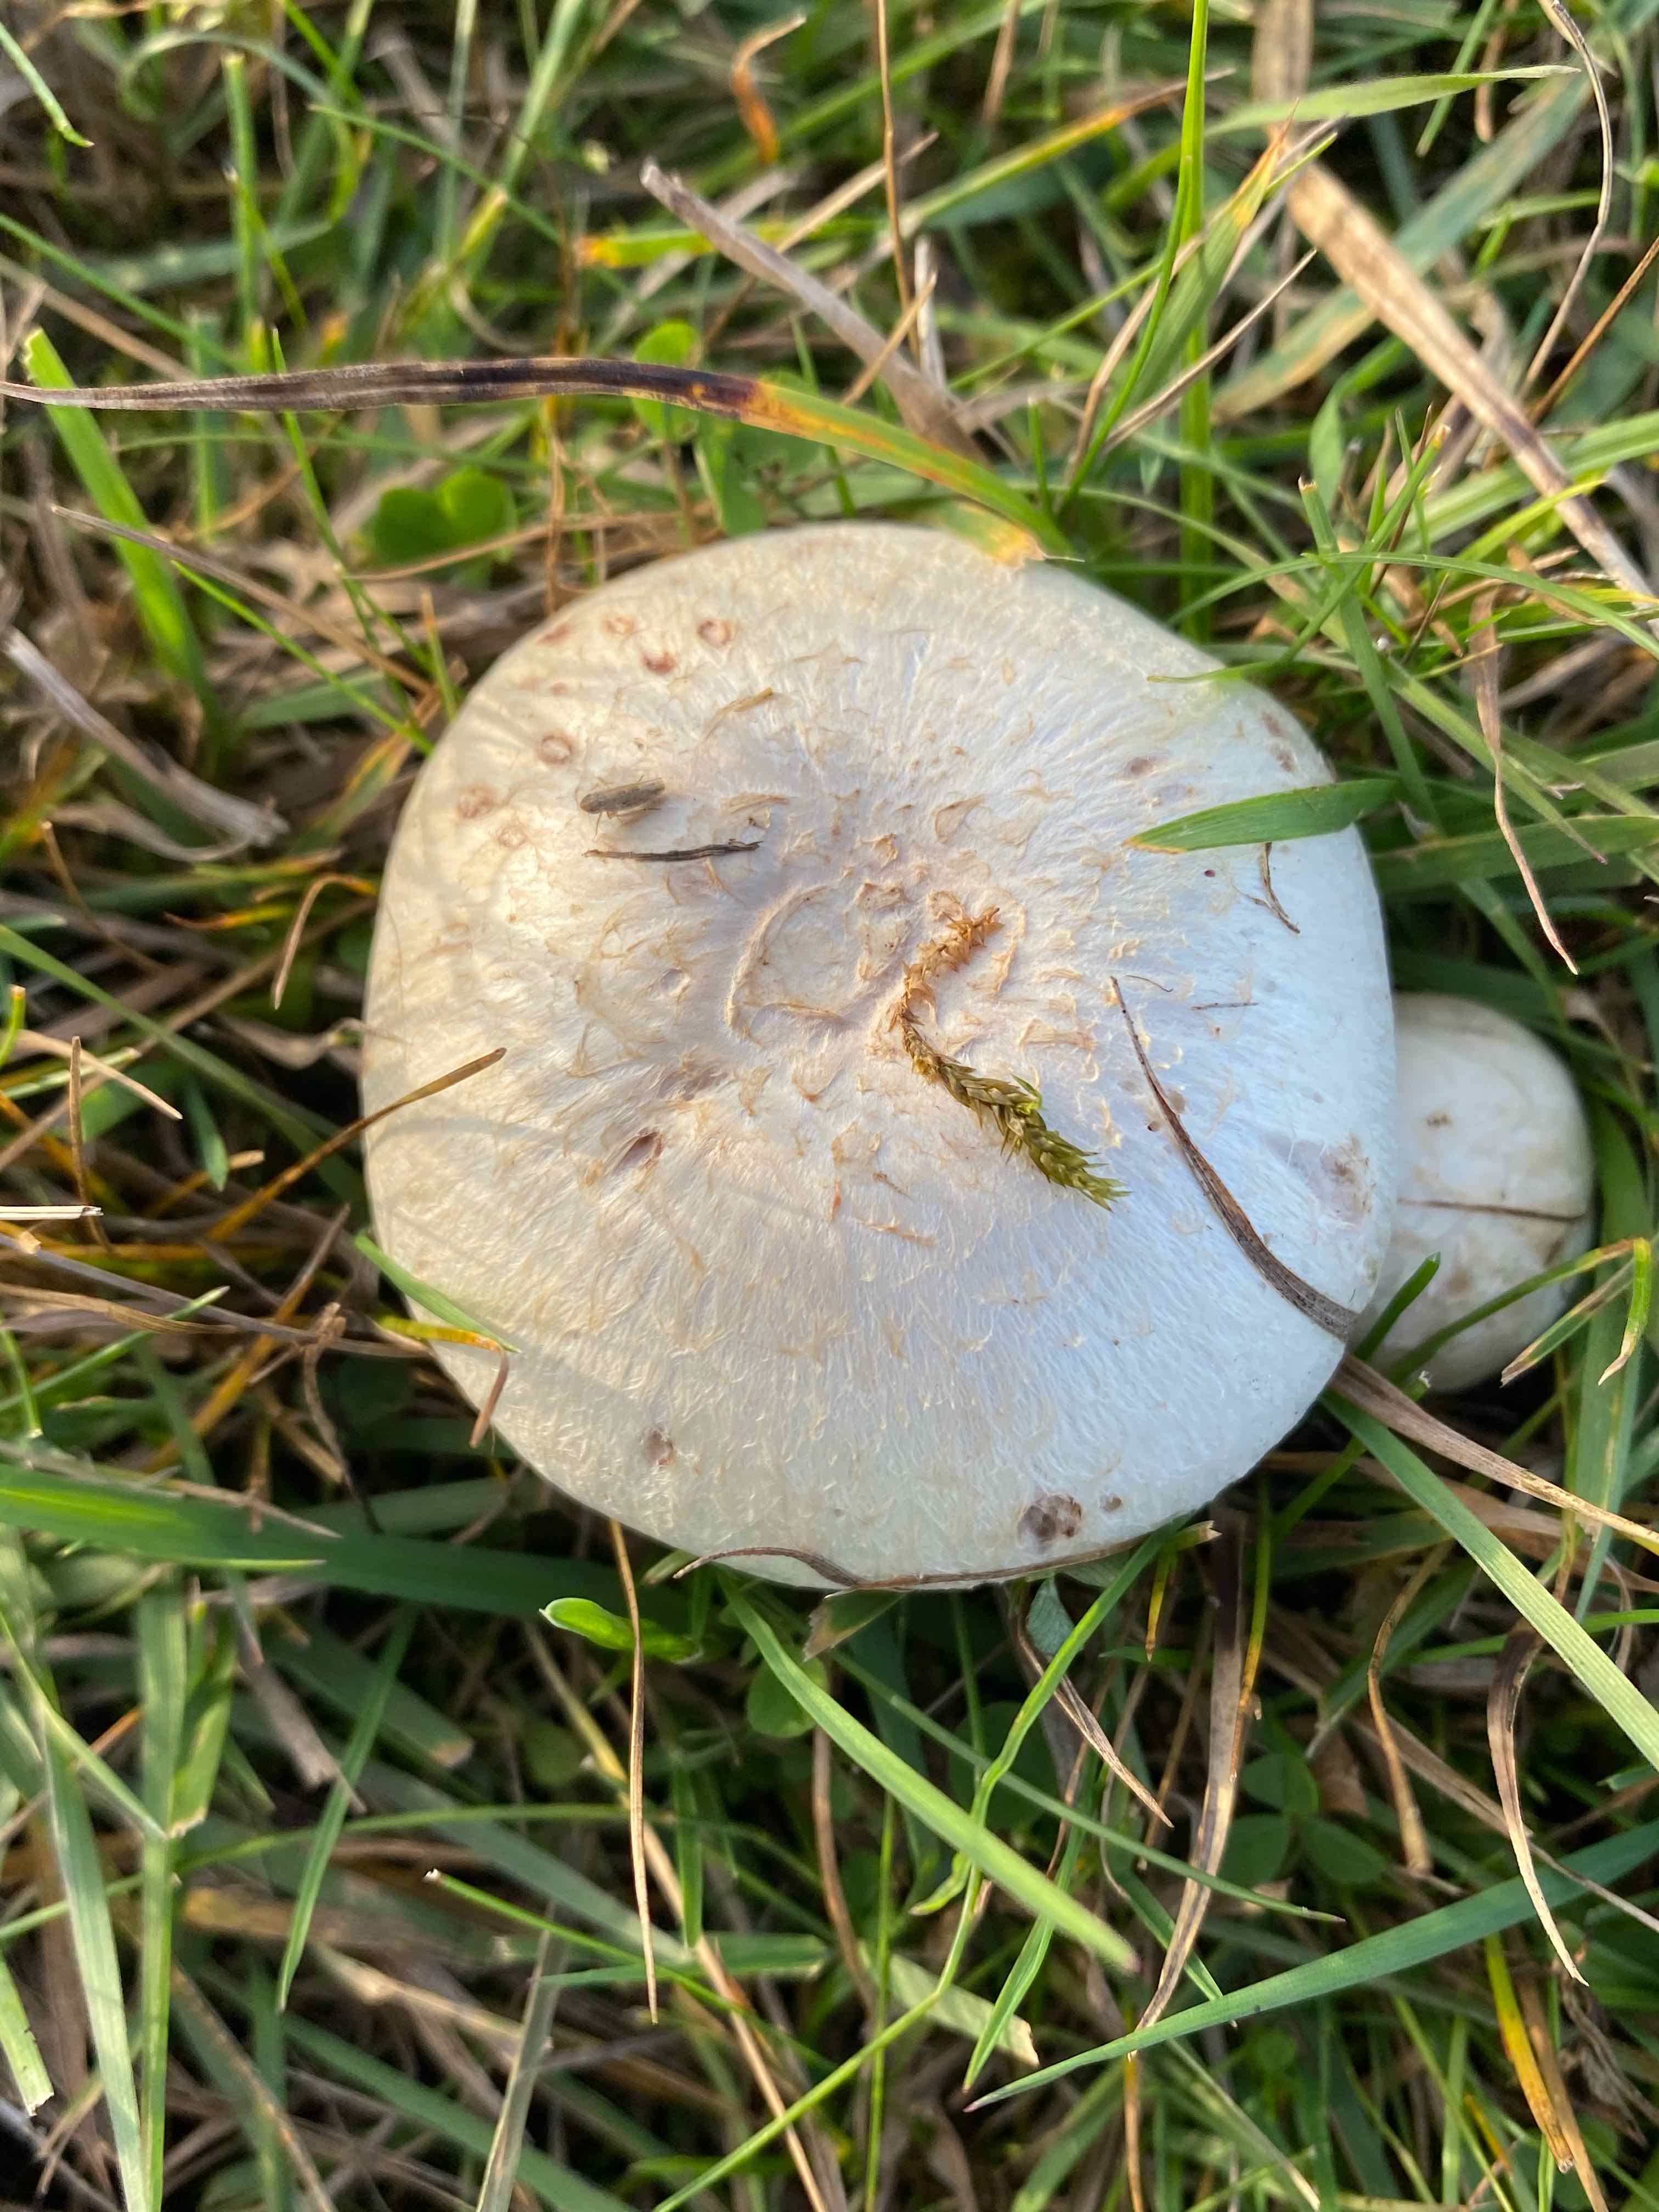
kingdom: Fungi
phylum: Basidiomycota
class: Agaricomycetes
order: Agaricales
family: Agaricaceae
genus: Agaricus
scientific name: Agaricus campestris
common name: mark-champignon
